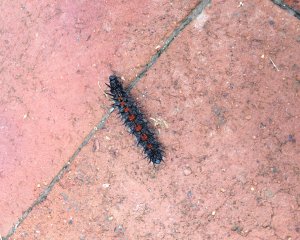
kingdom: Animalia
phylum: Arthropoda
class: Insecta
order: Lepidoptera
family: Nymphalidae
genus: Nymphalis
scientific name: Nymphalis antiopa
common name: Mourning Cloak
